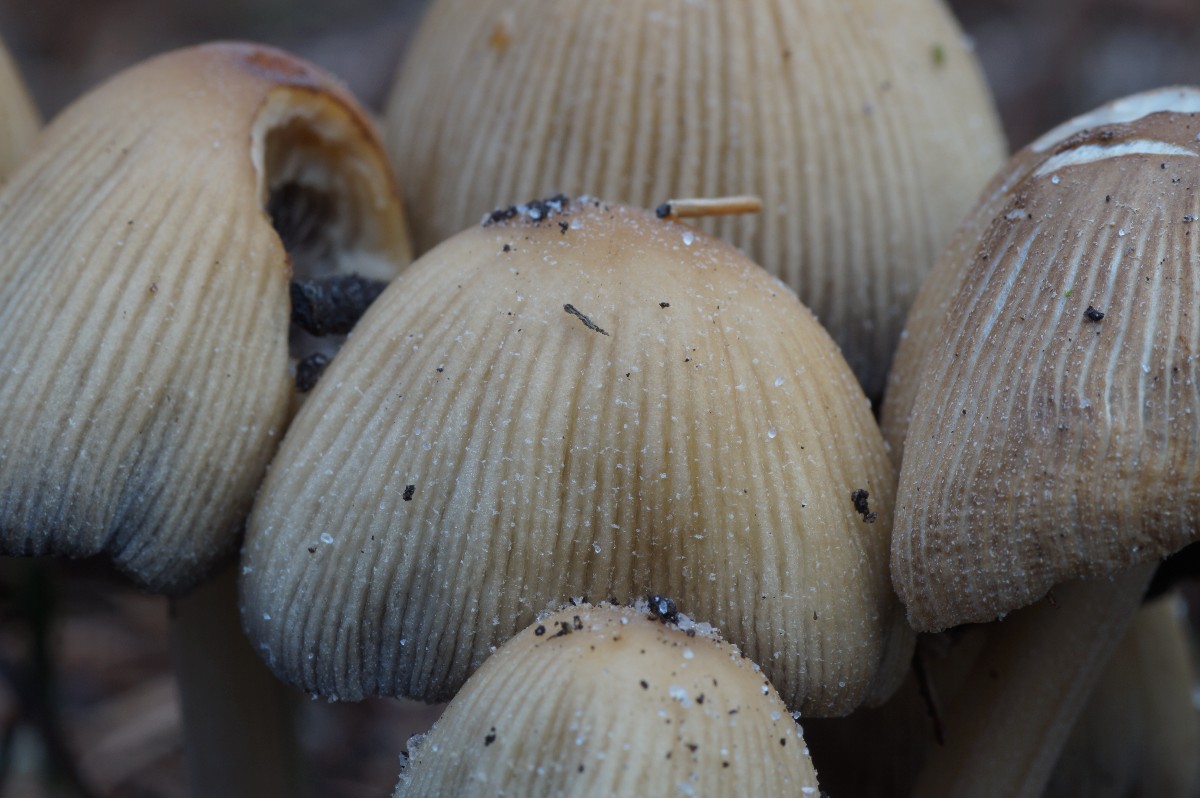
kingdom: Fungi
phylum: Basidiomycota
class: Agaricomycetes
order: Agaricales
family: Psathyrellaceae
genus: Coprinellus
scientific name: Coprinellus
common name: blækhat
